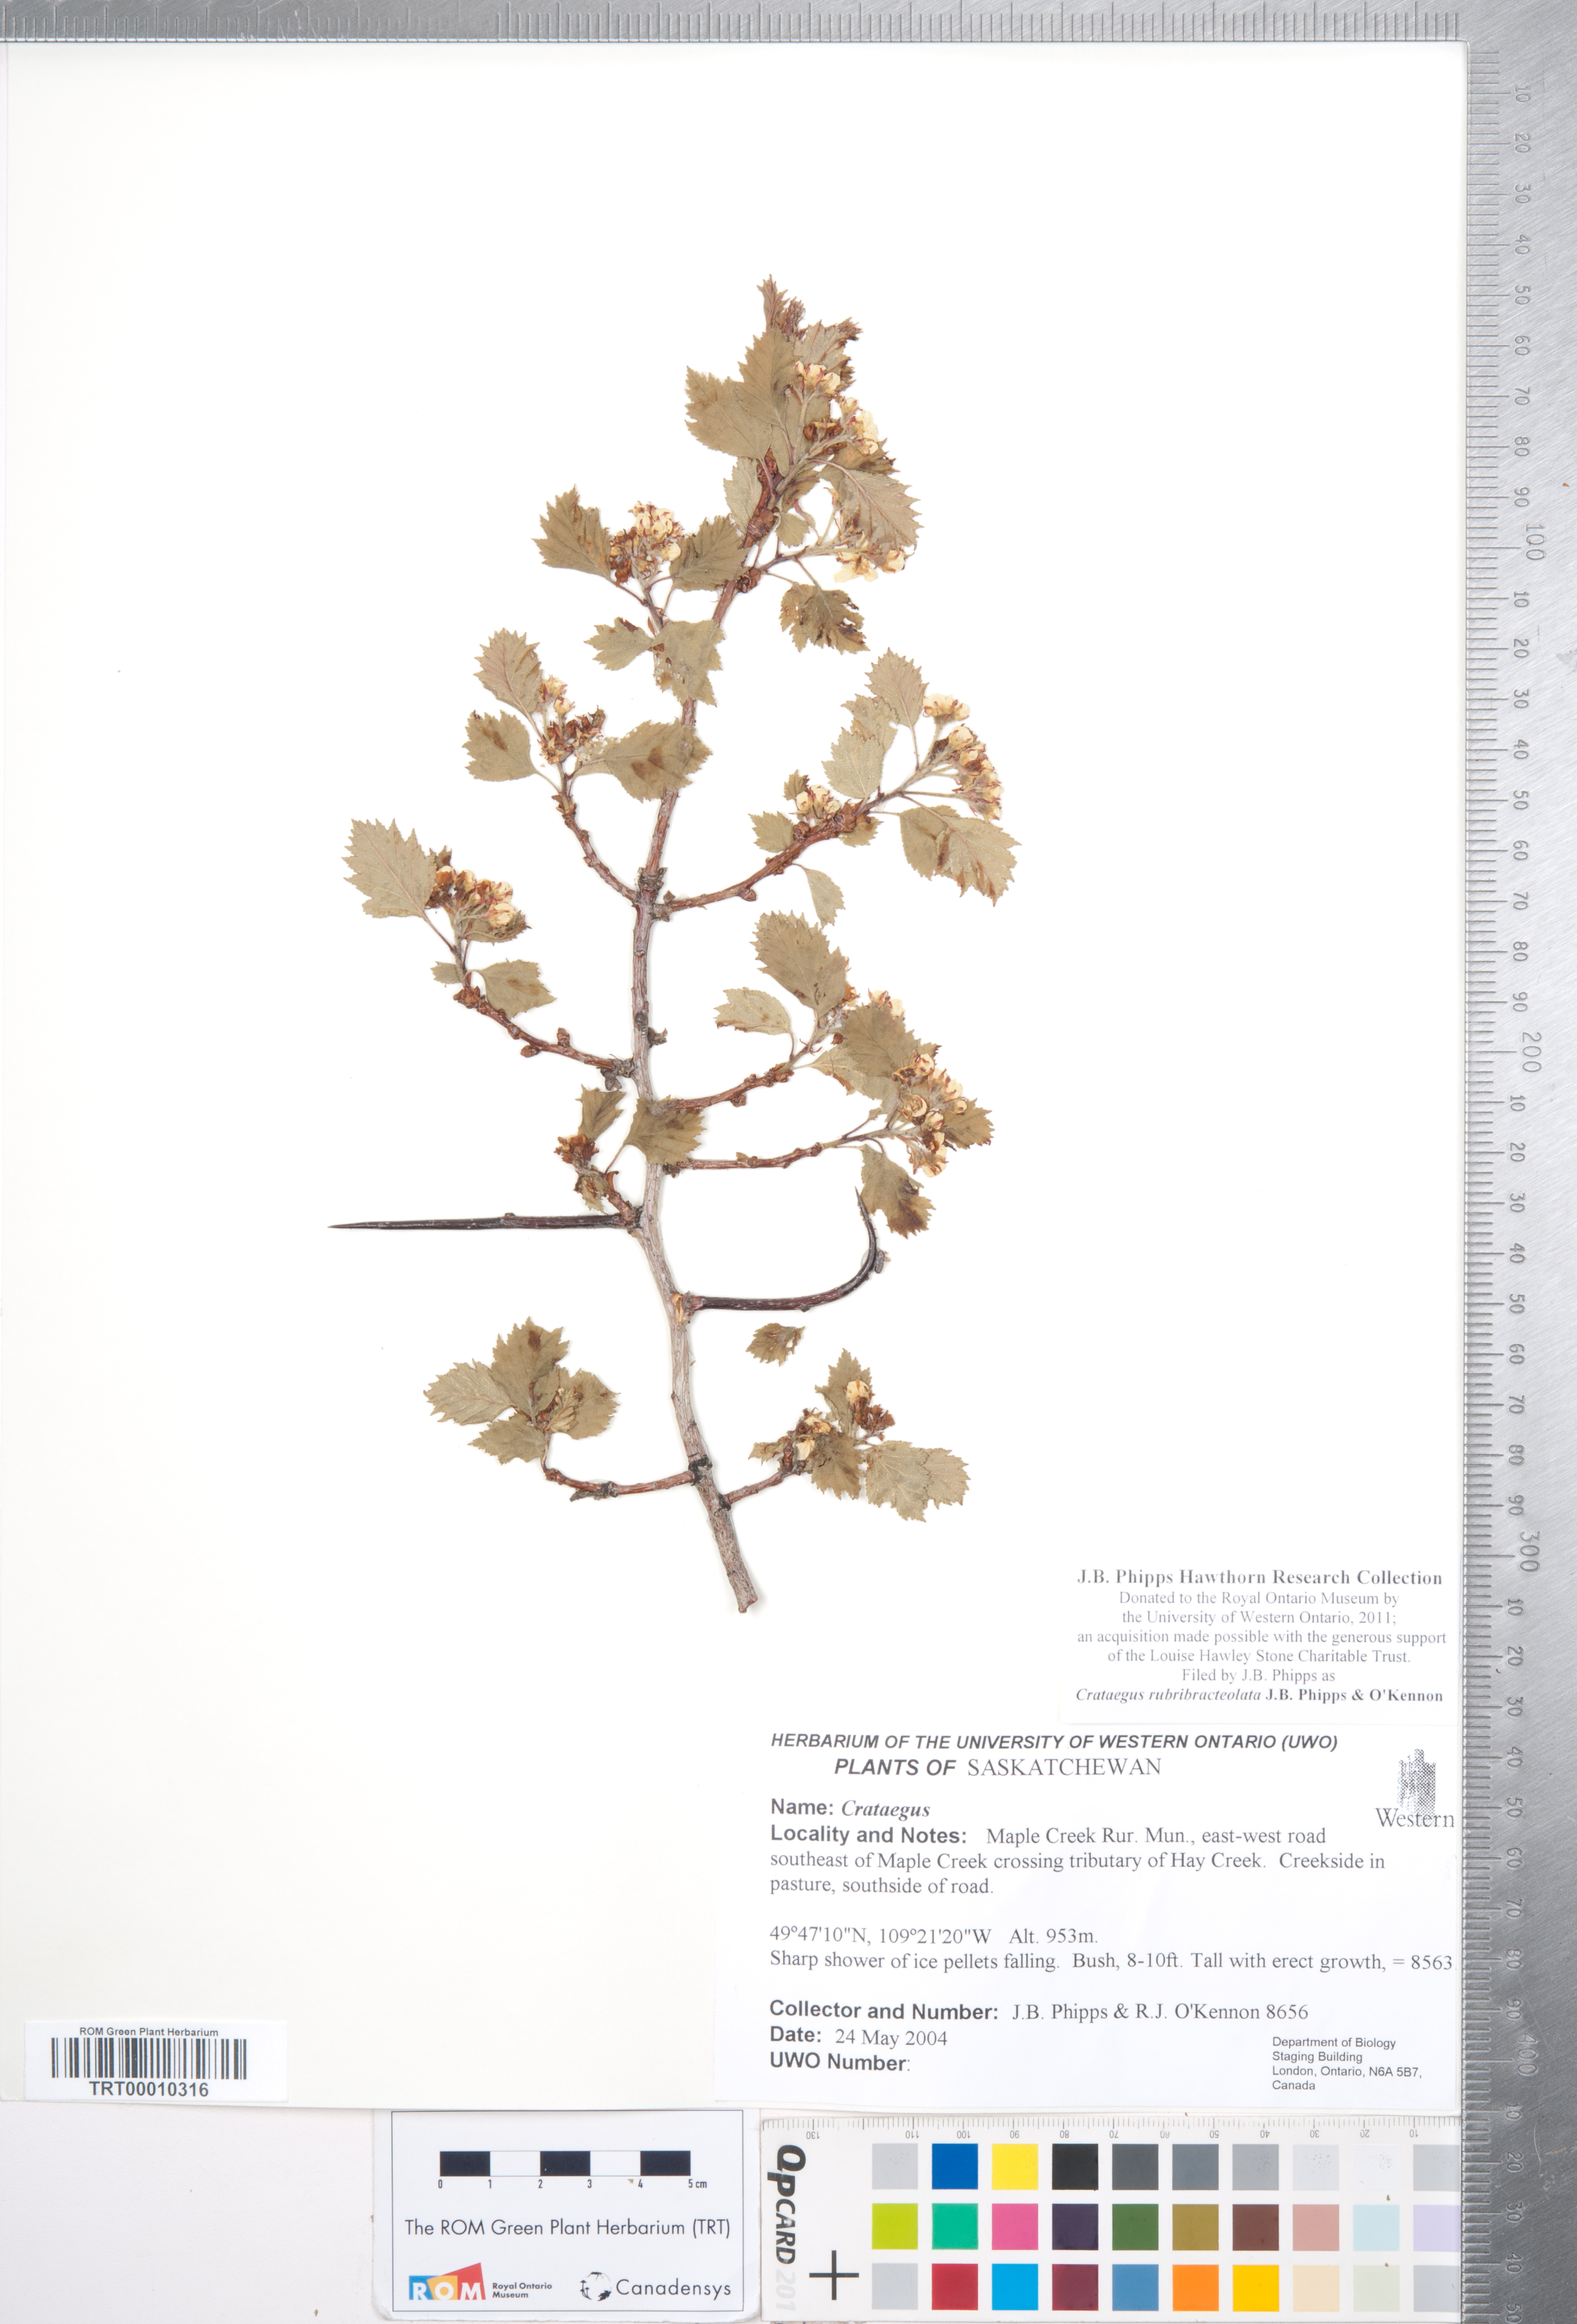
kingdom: Plantae
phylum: Tracheophyta
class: Magnoliopsida
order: Rosales
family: Rosaceae
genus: Crataegus
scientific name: Crataegus rubribracteolata
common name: Red bracteole hawthorn
